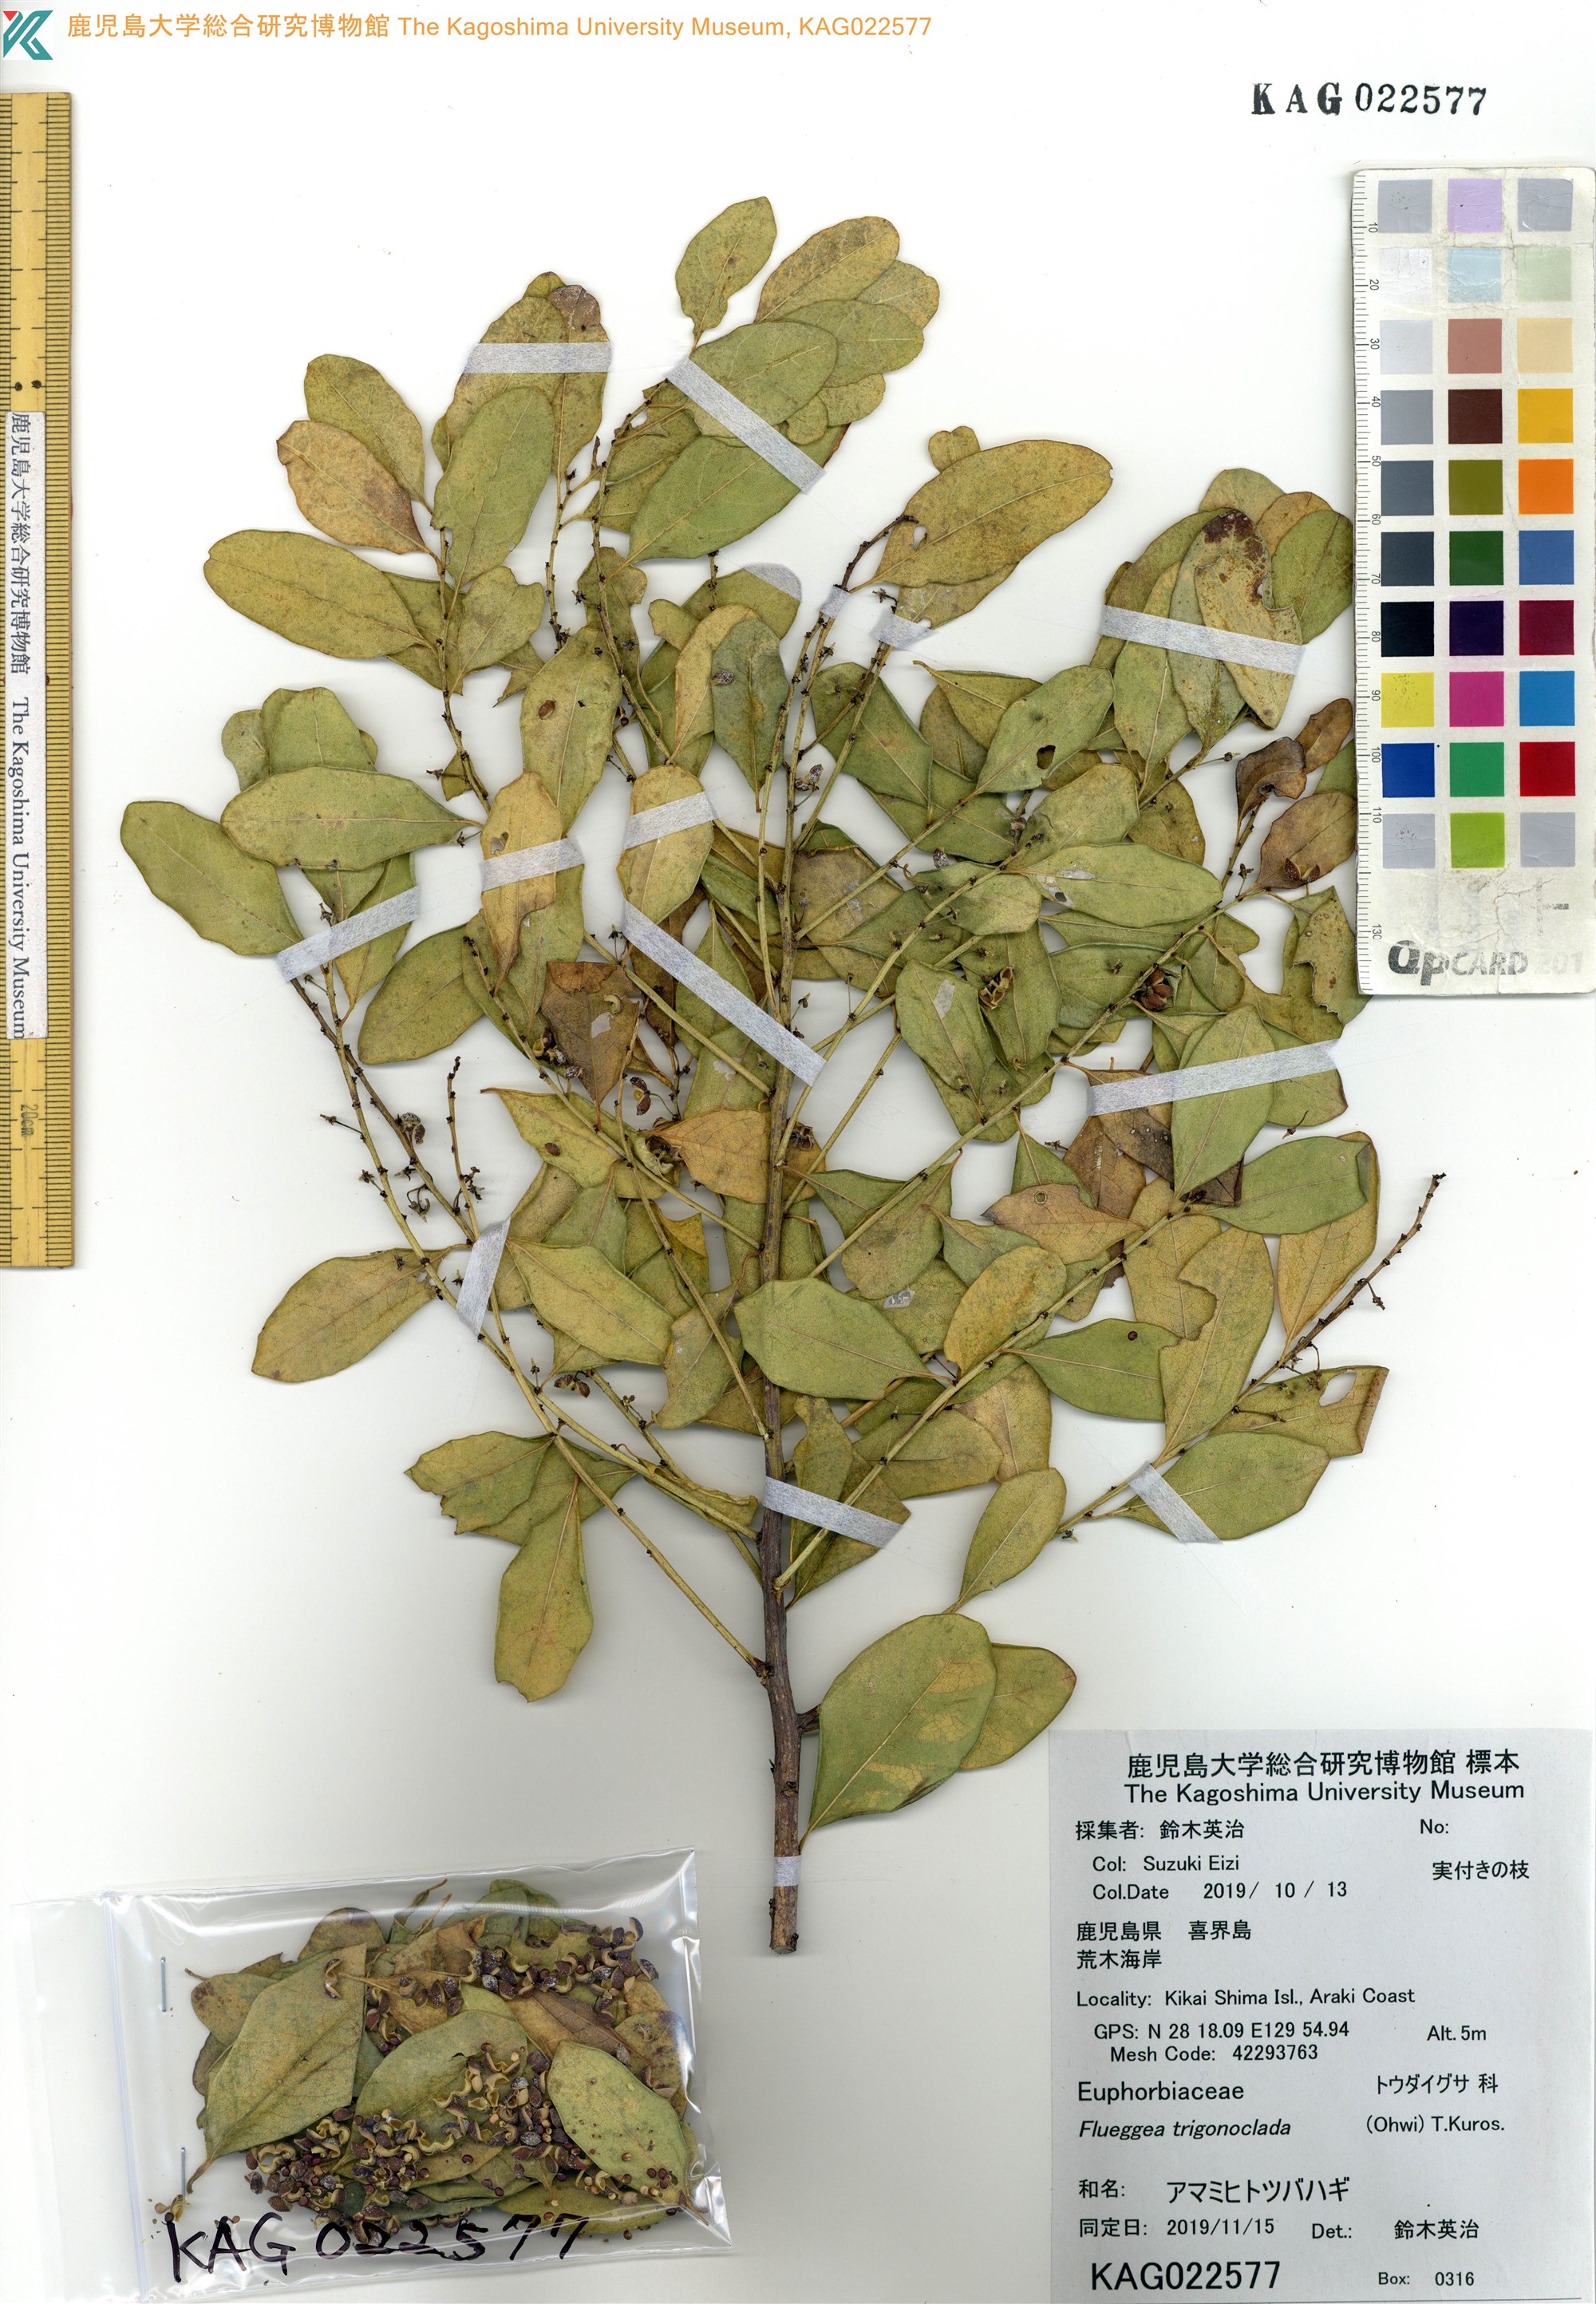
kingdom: Plantae
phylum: Tracheophyta
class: Magnoliopsida
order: Malpighiales
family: Phyllanthaceae
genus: Flueggea
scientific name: Flueggea suffruticosa
